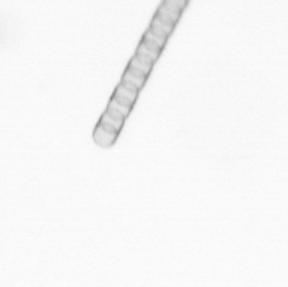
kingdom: Chromista
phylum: Ochrophyta
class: Bacillariophyceae
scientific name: Bacillariophyceae
